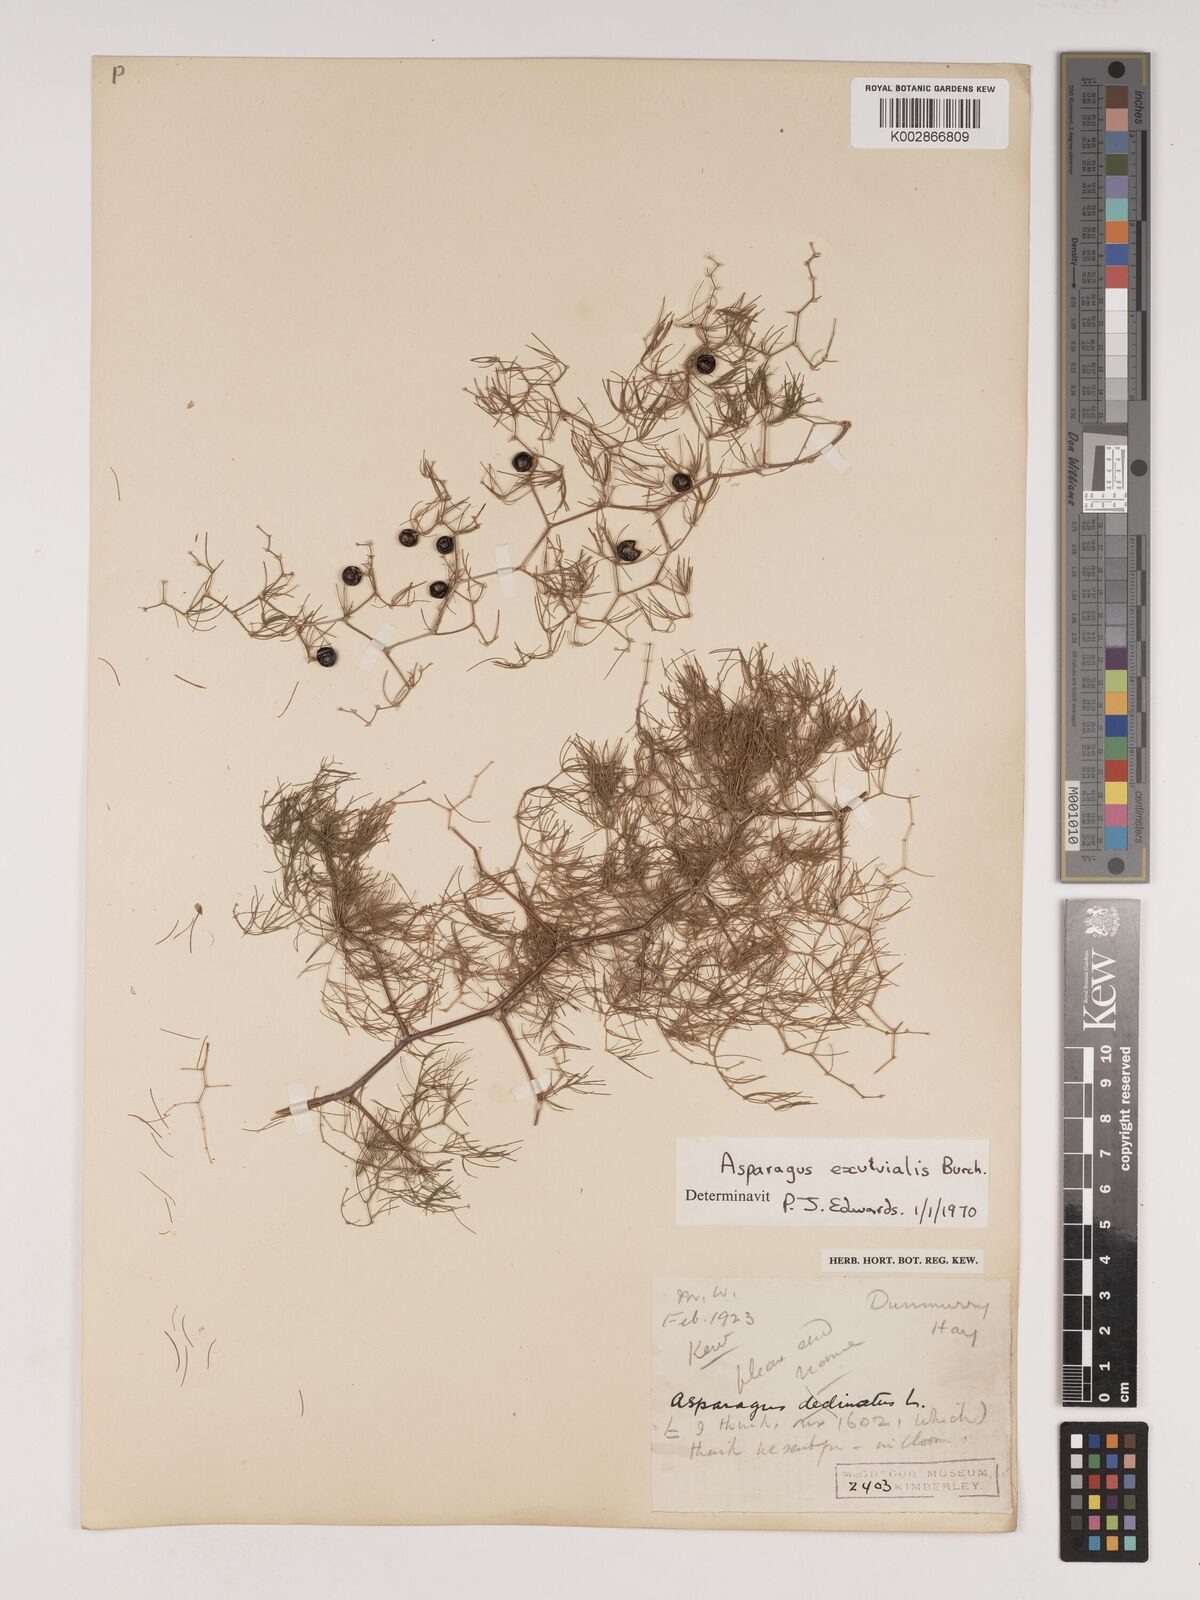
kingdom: Plantae
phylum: Tracheophyta
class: Liliopsida
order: Asparagales
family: Asparagaceae
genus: Asparagus
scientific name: Asparagus exuvialis
